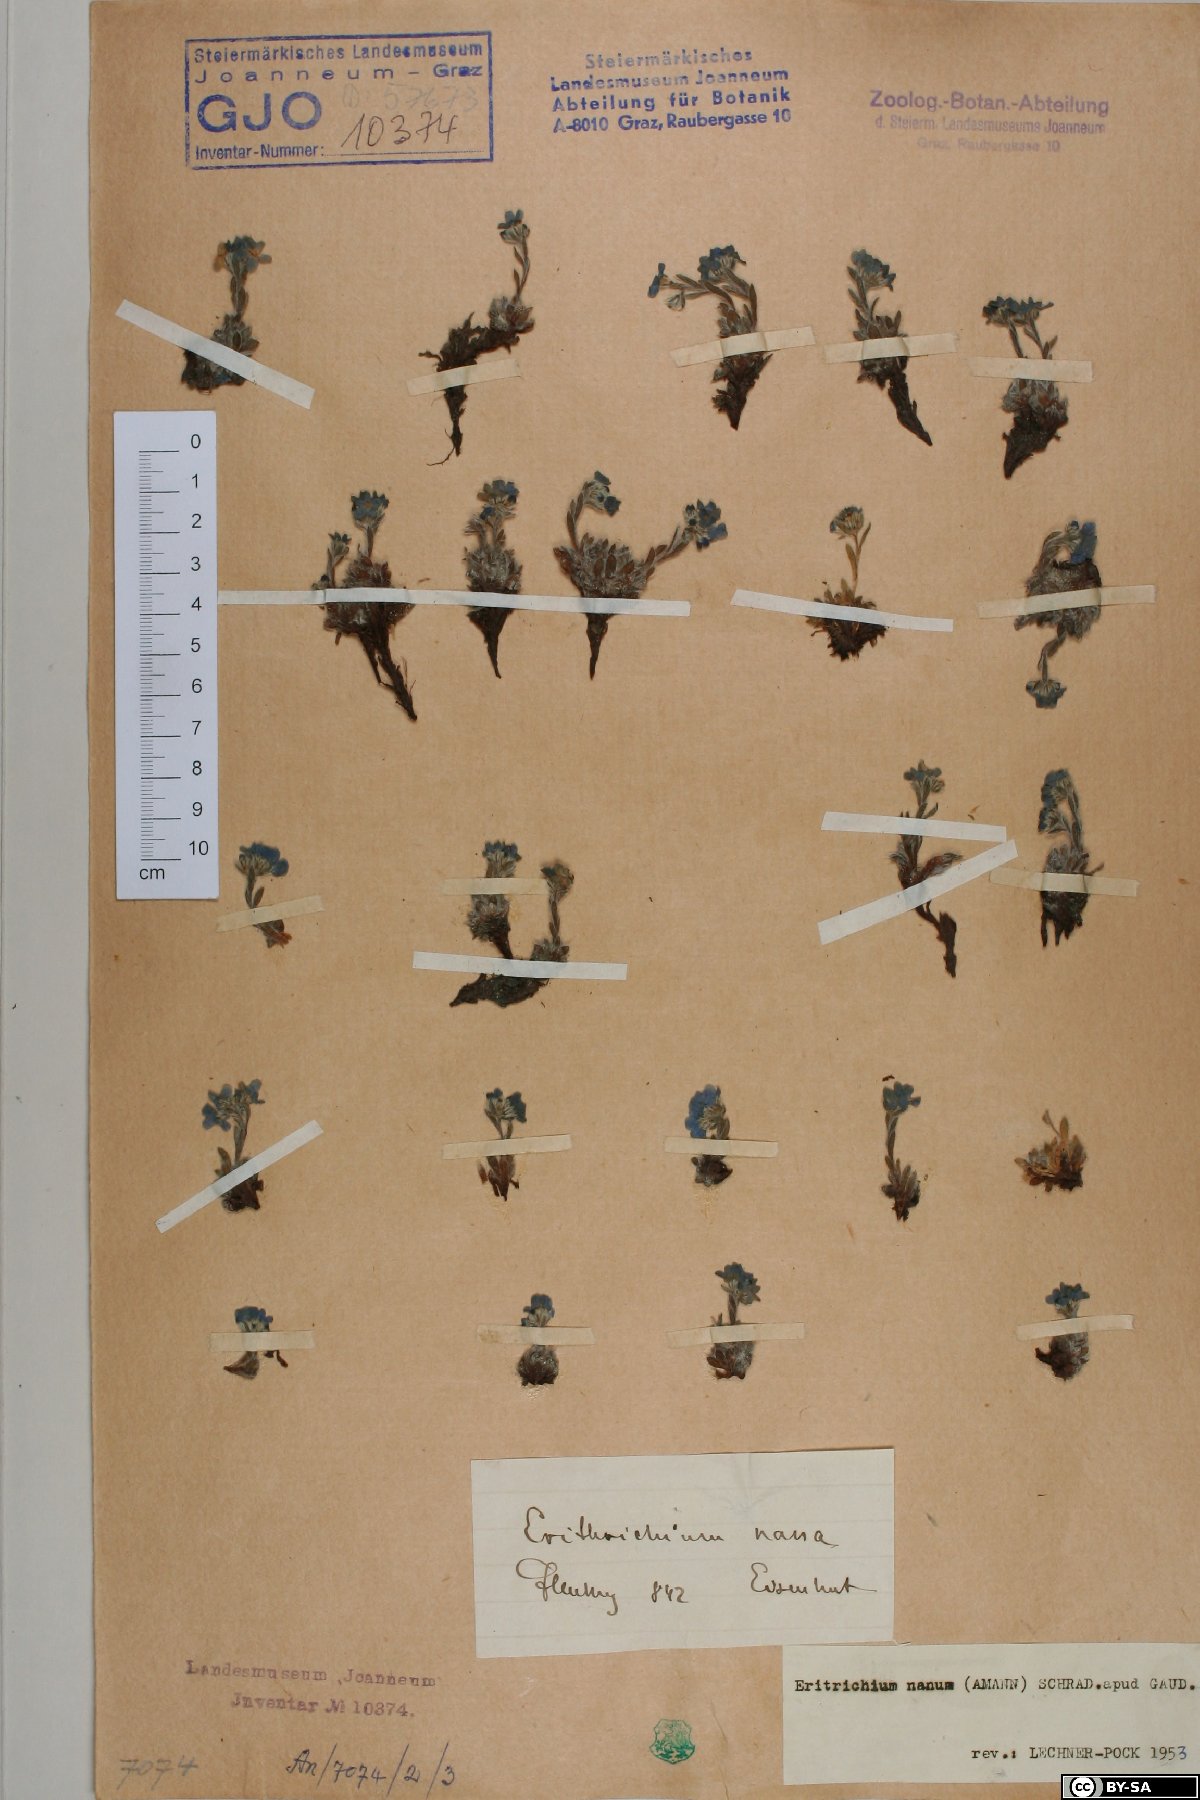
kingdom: Plantae
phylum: Tracheophyta
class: Magnoliopsida
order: Boraginales
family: Boraginaceae
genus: Eritrichium
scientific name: Eritrichium nanum
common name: King-of-the-alps
